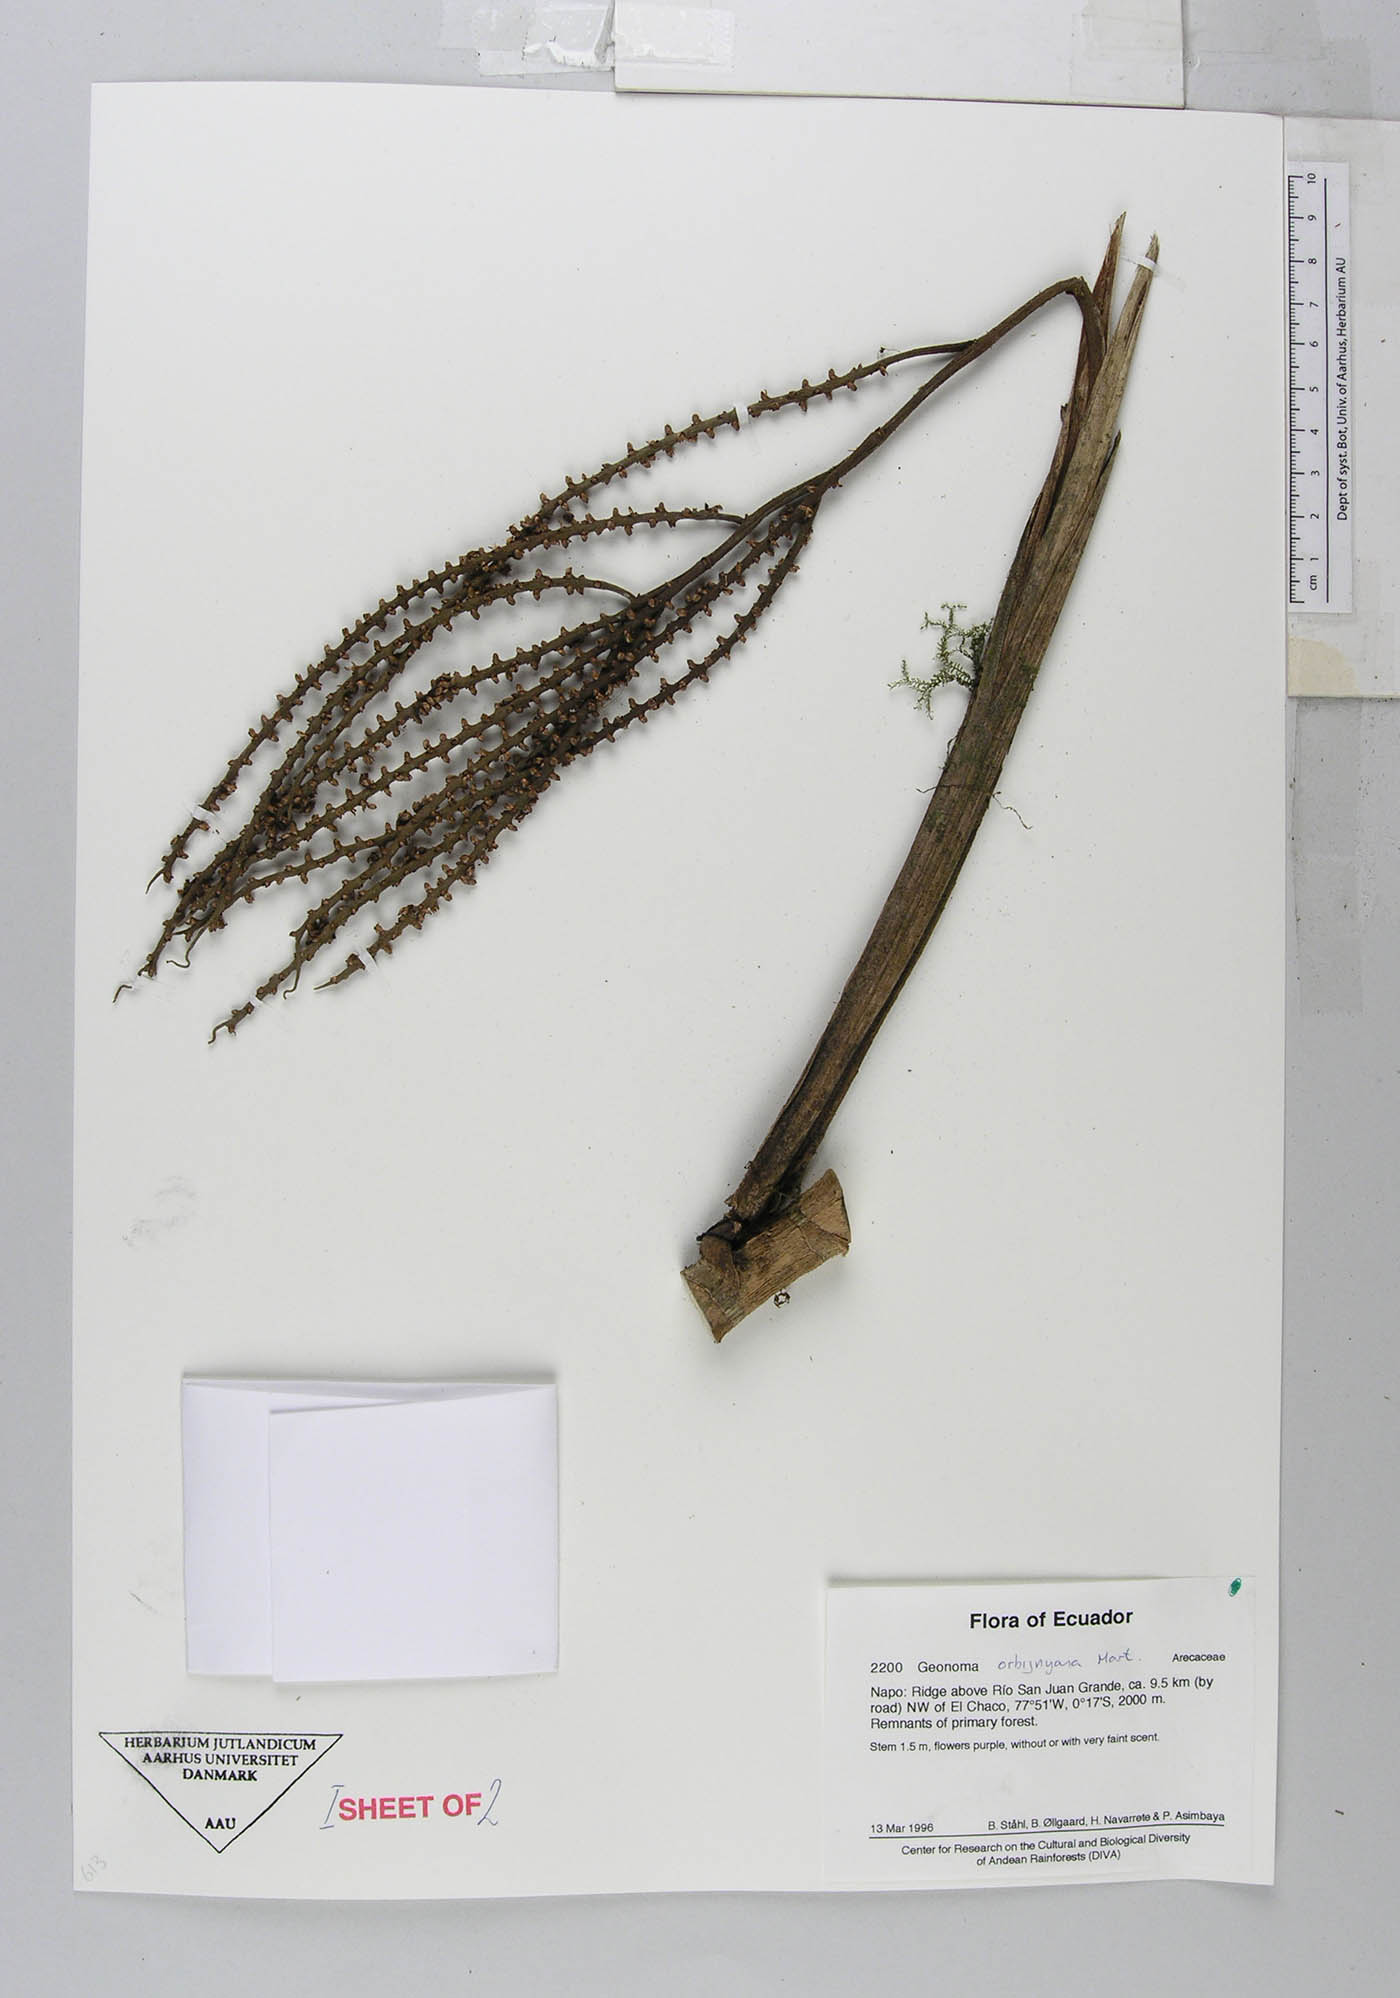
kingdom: Plantae
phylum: Tracheophyta
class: Liliopsida
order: Arecales
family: Arecaceae
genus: Geonoma
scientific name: Geonoma orbignyana
